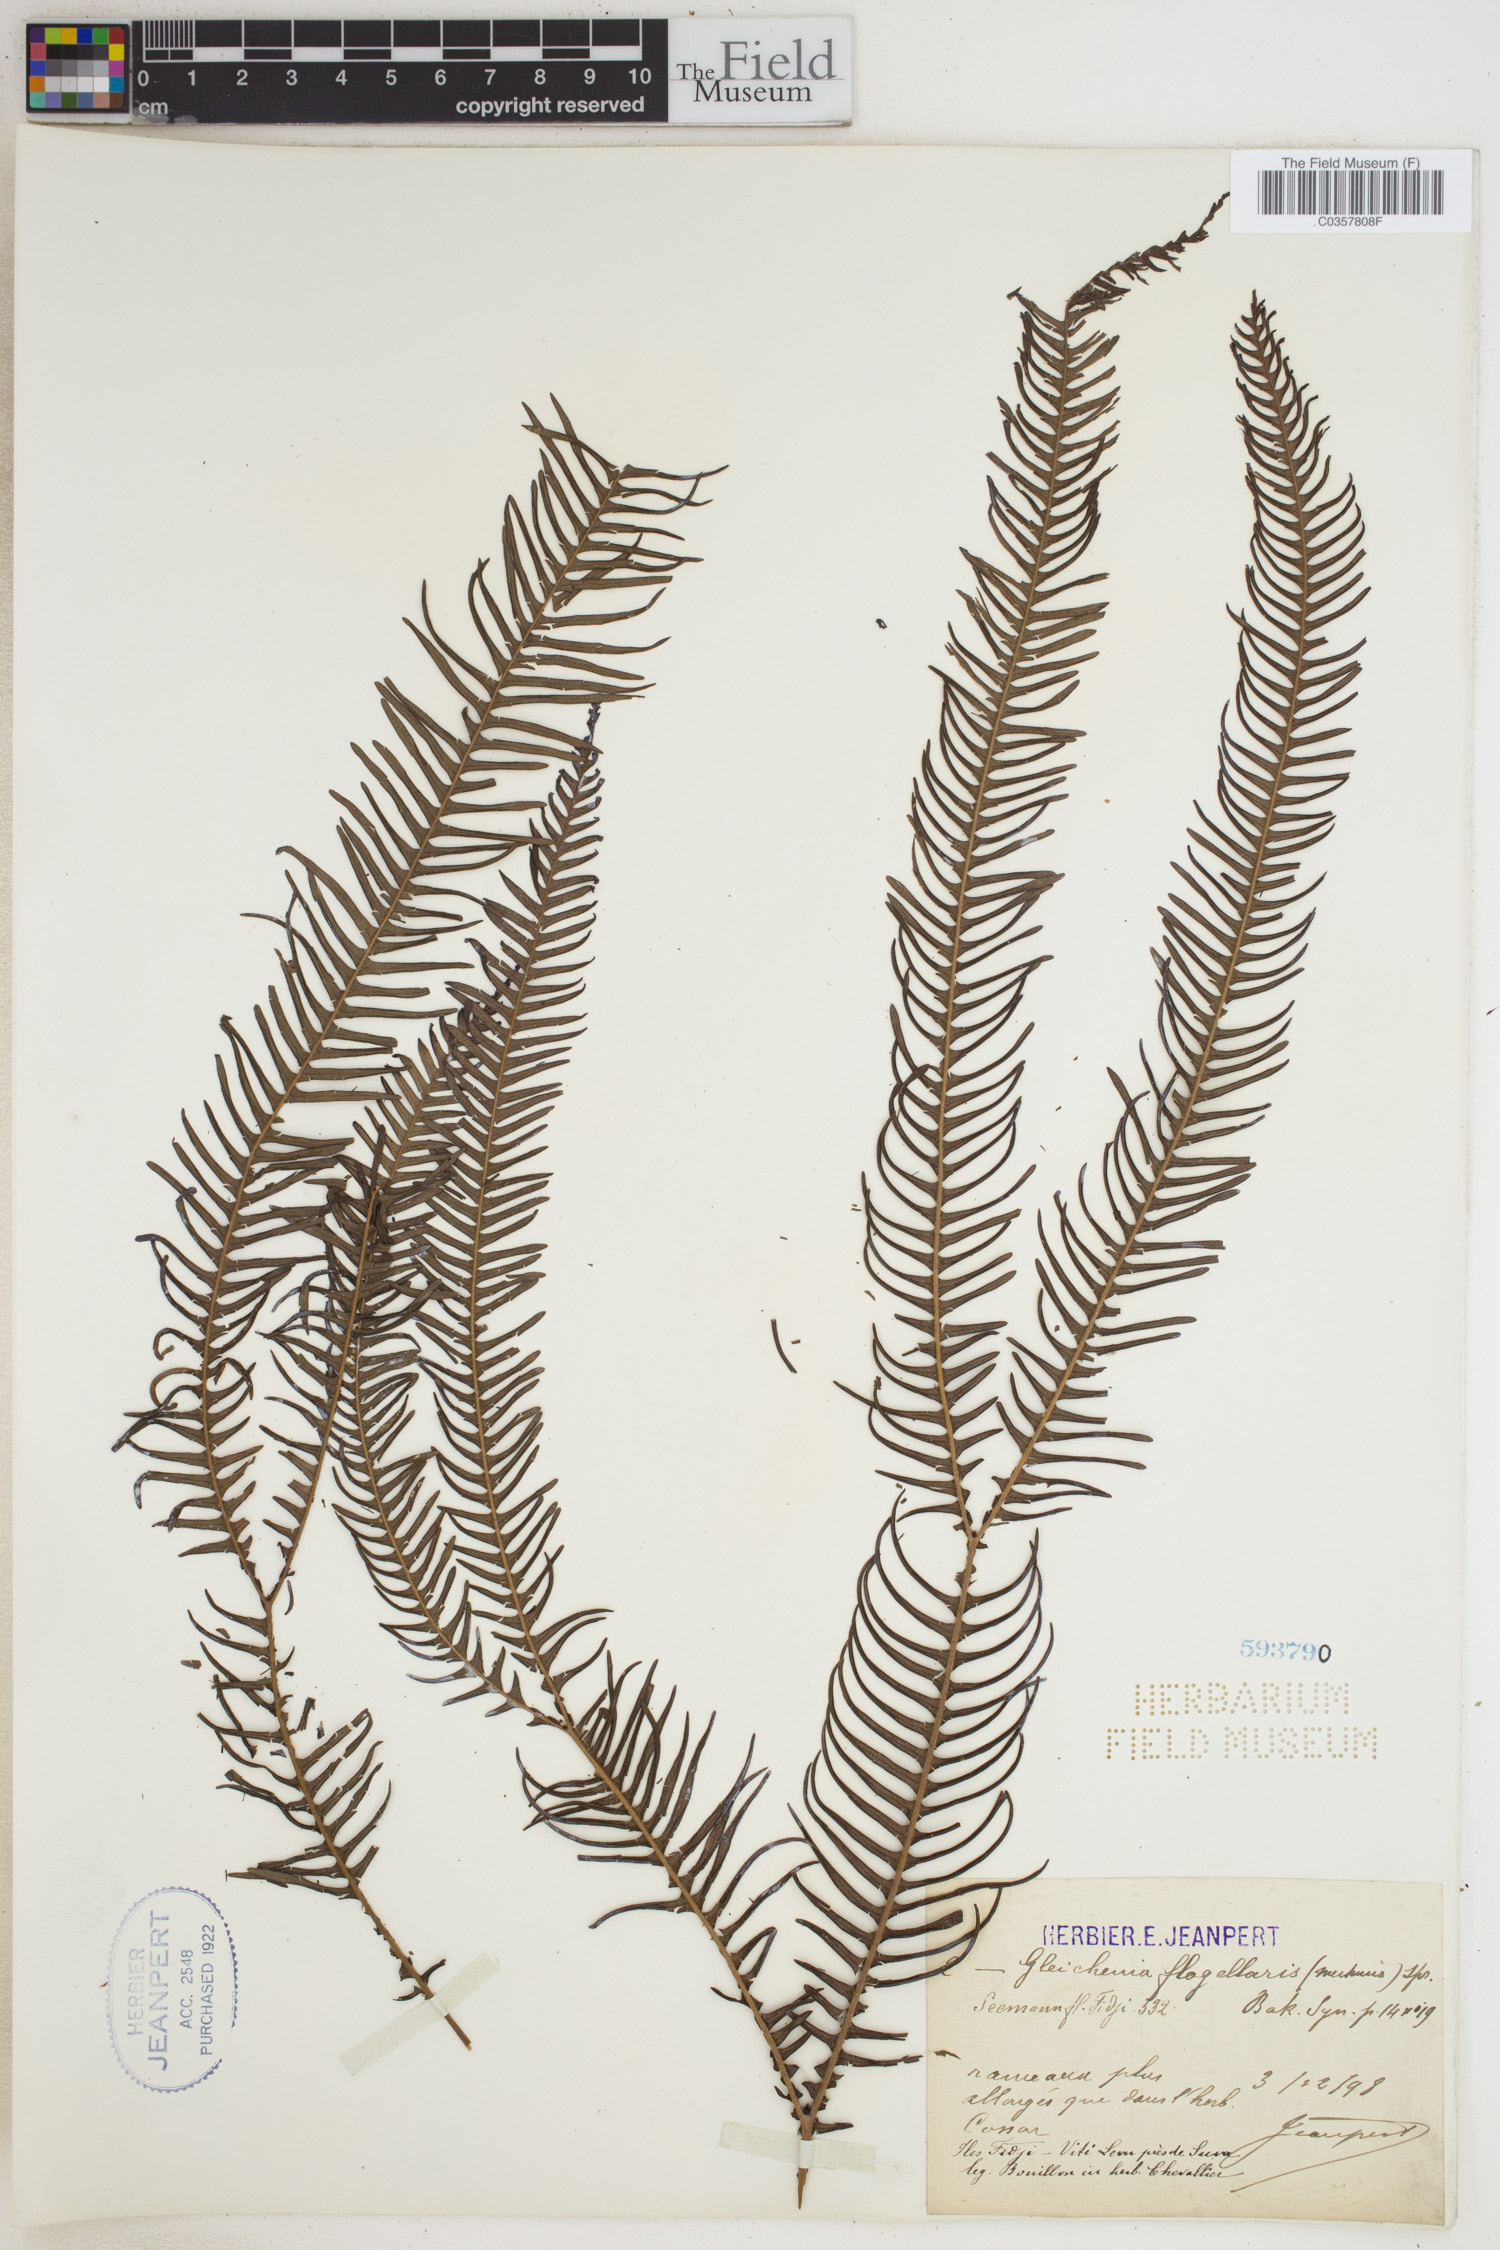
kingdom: Plantae
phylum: Tracheophyta
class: Polypodiopsida
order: Gleicheniales
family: Gleicheniaceae
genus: Sticherus
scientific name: Sticherus flabellatus
